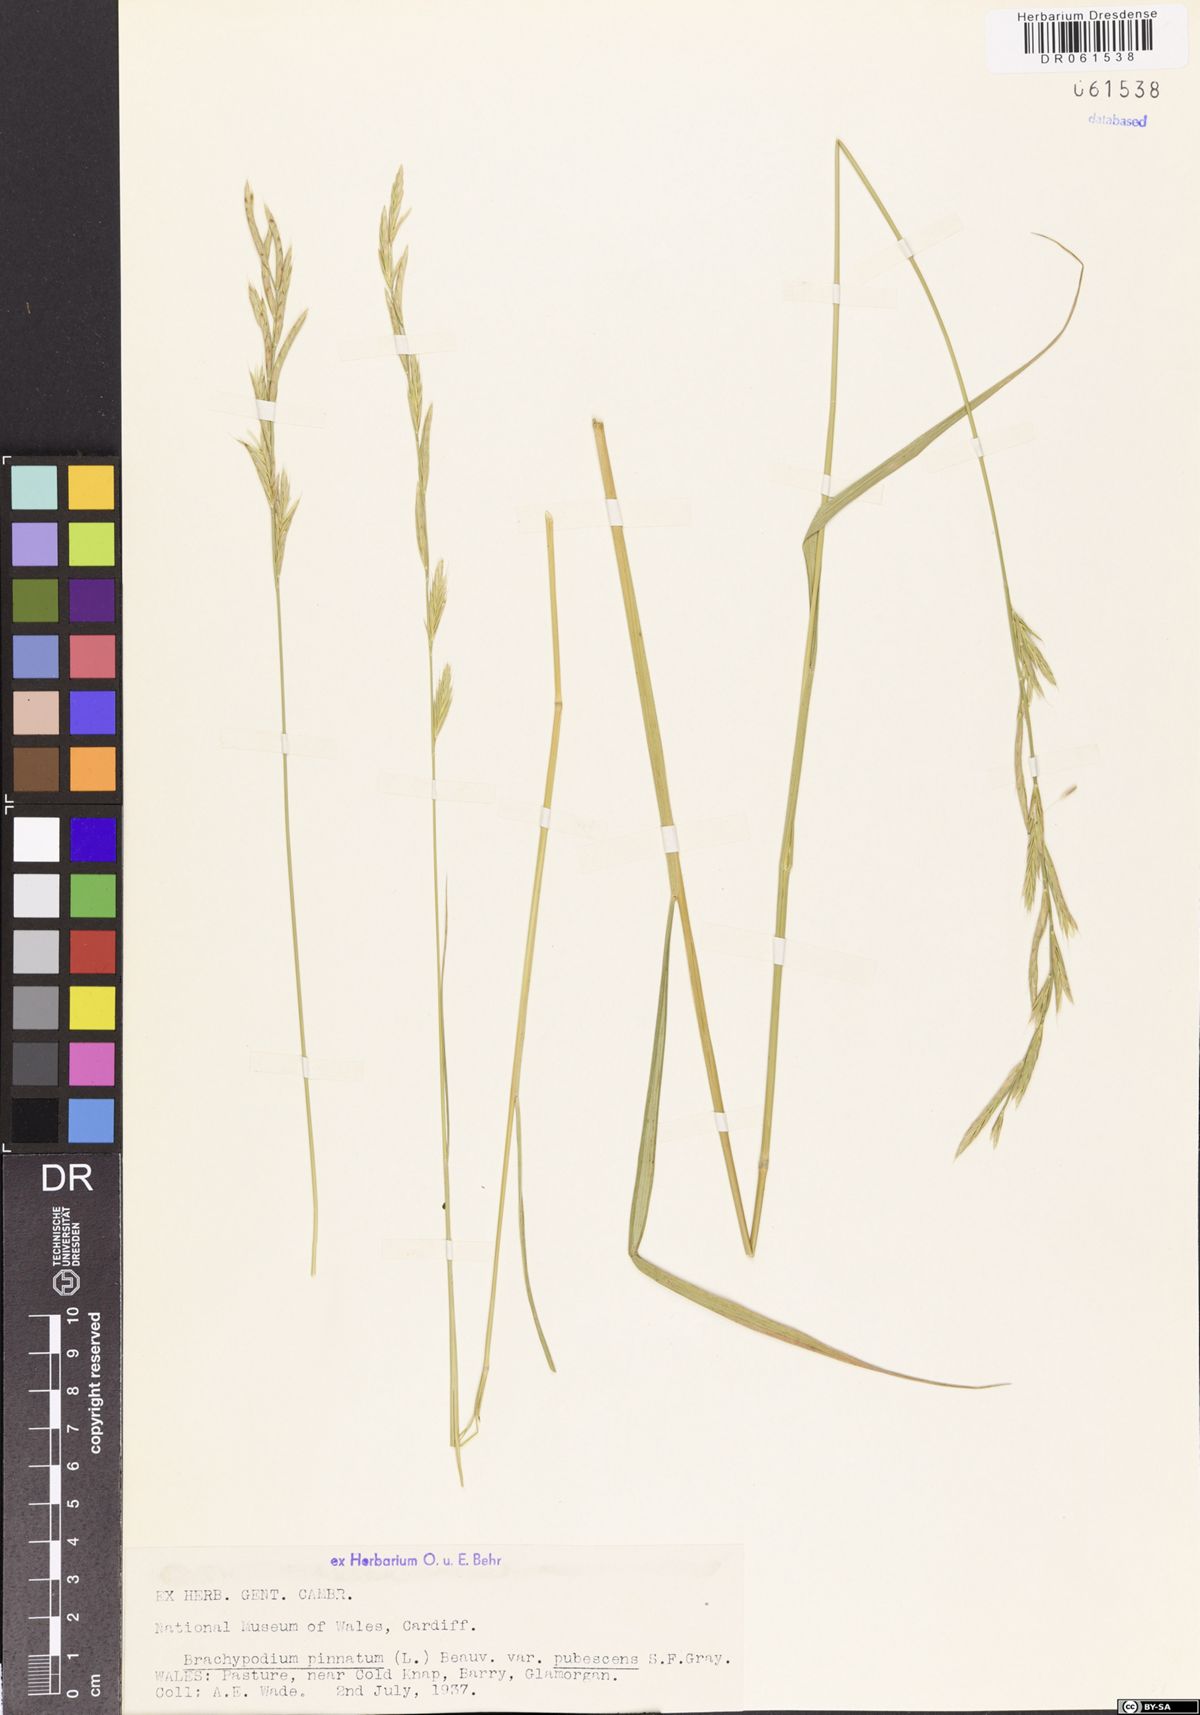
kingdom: Plantae
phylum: Tracheophyta
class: Liliopsida
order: Poales
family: Poaceae
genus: Brachypodium
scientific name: Brachypodium pinnatum
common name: Tor grass
